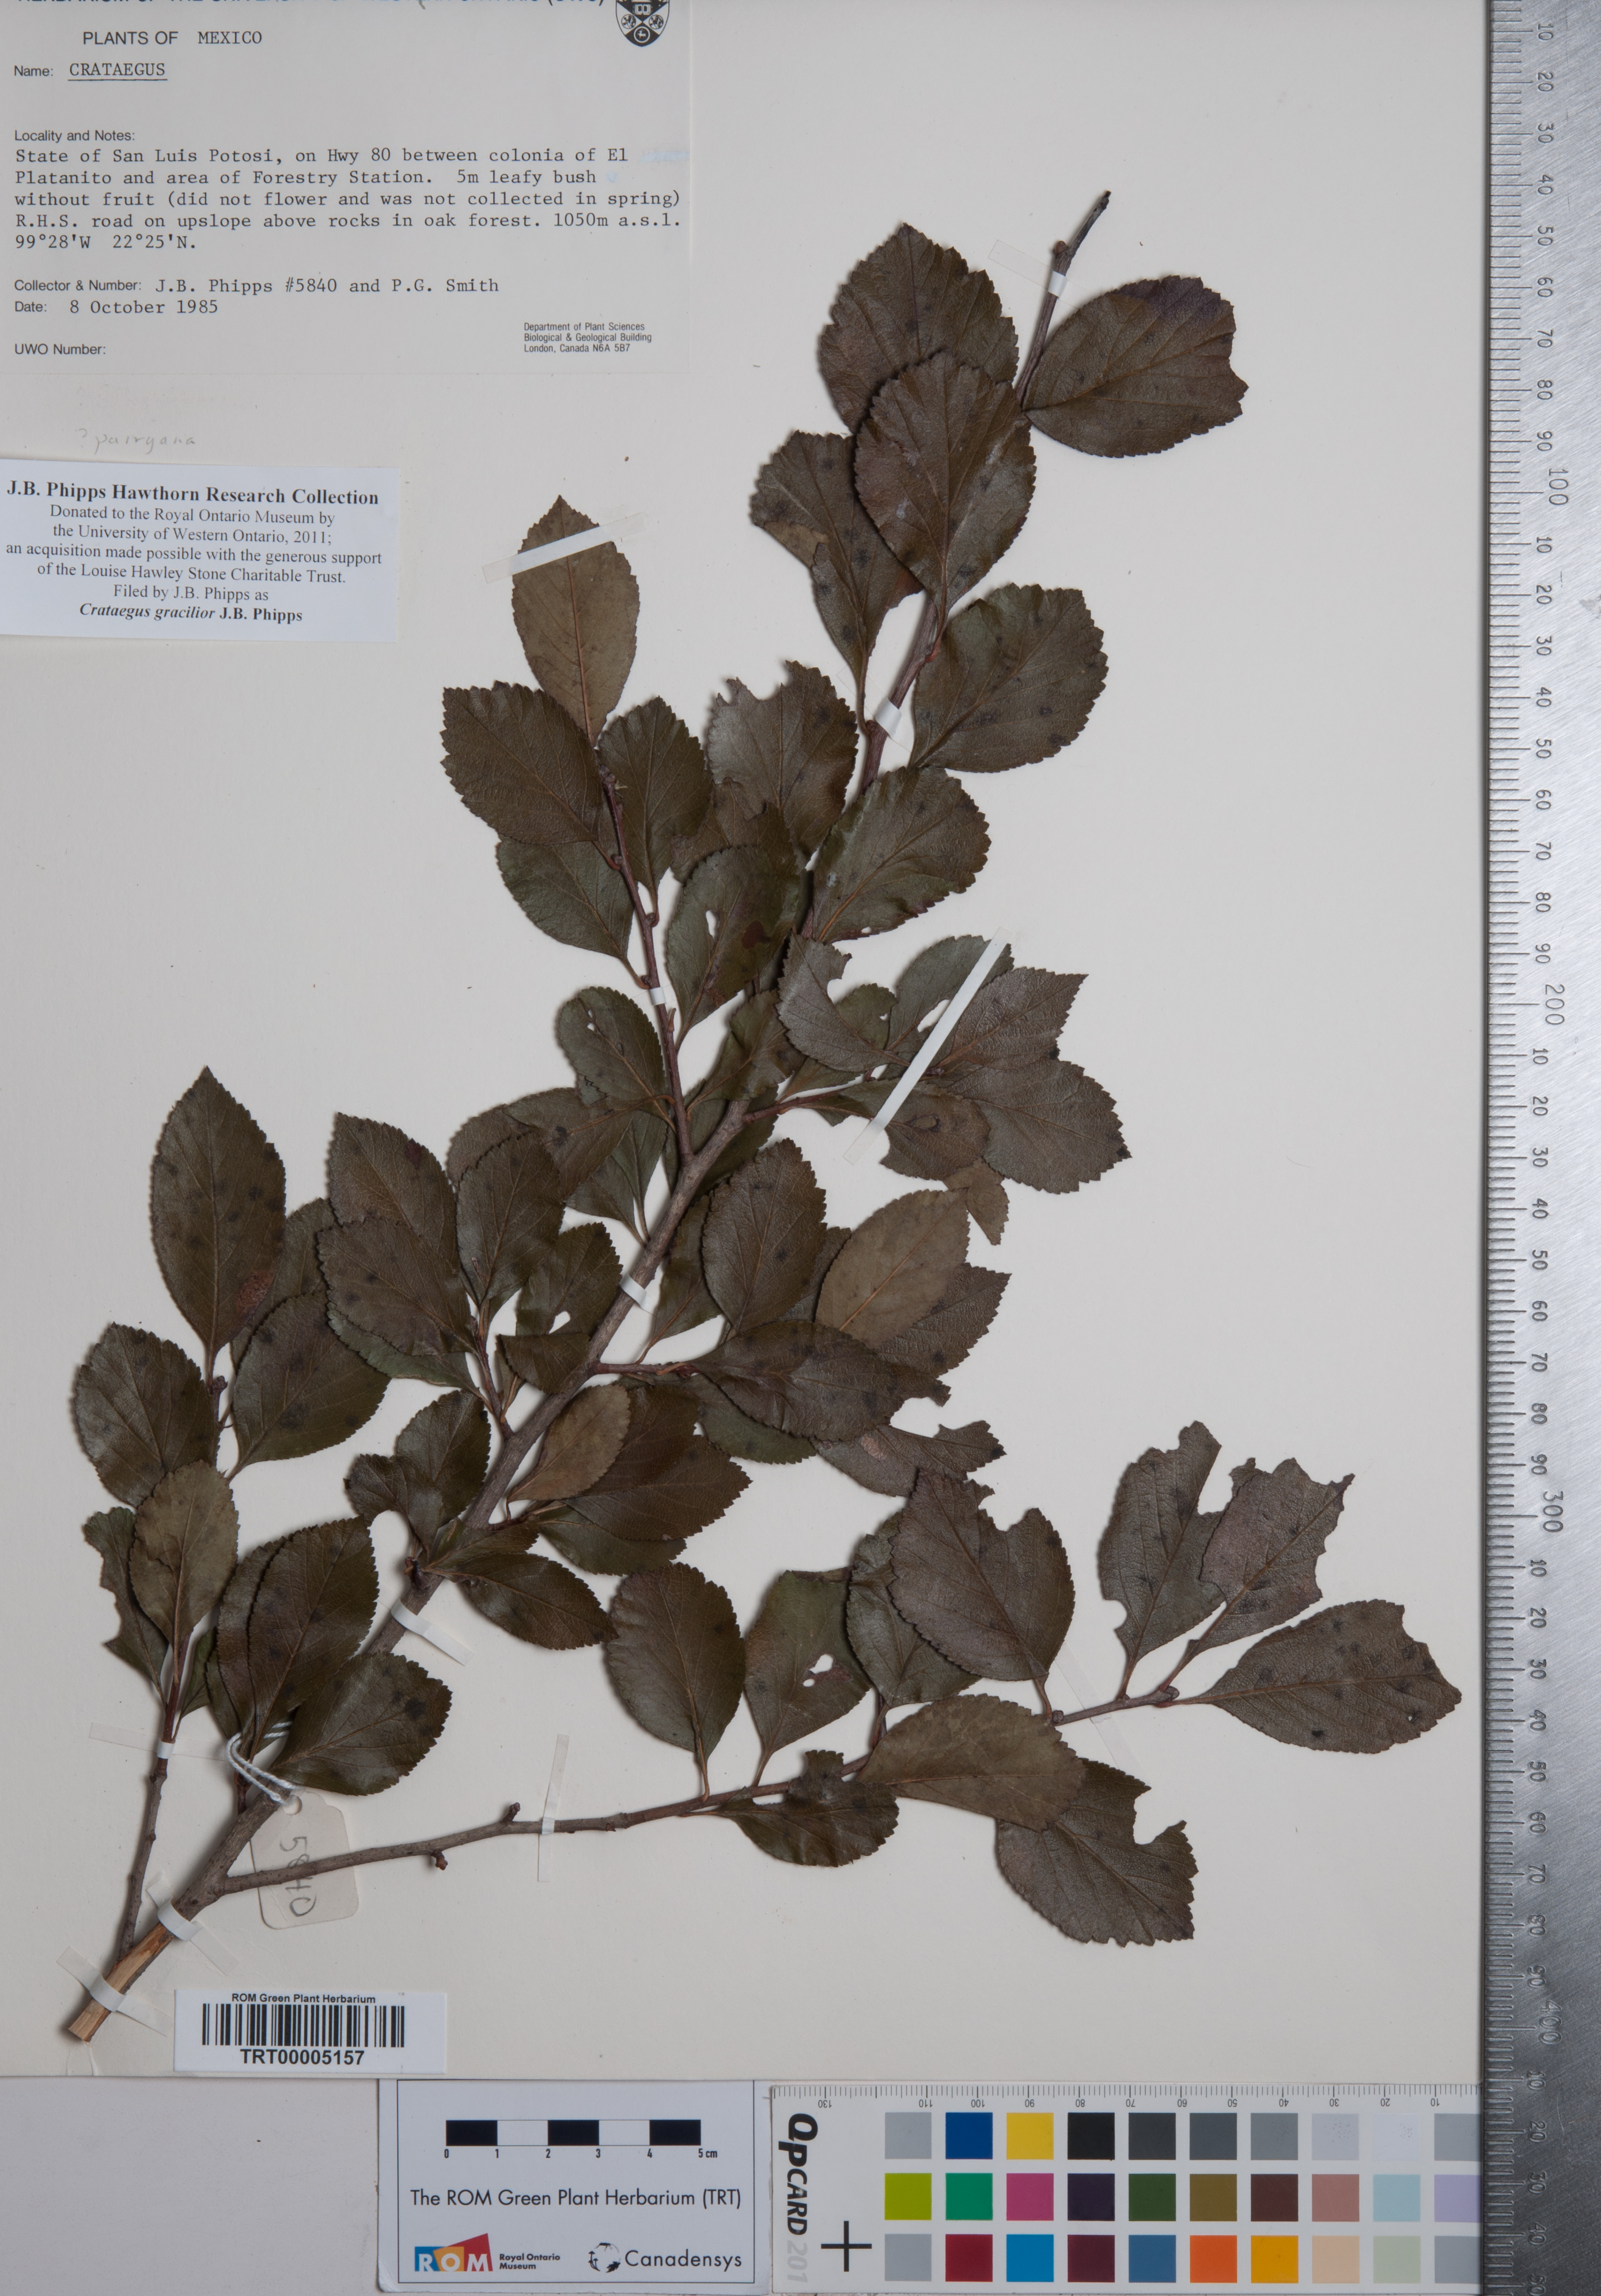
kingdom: Plantae
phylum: Tracheophyta
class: Magnoliopsida
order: Rosales
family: Rosaceae
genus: Crataegus
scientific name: Crataegus gracilior
